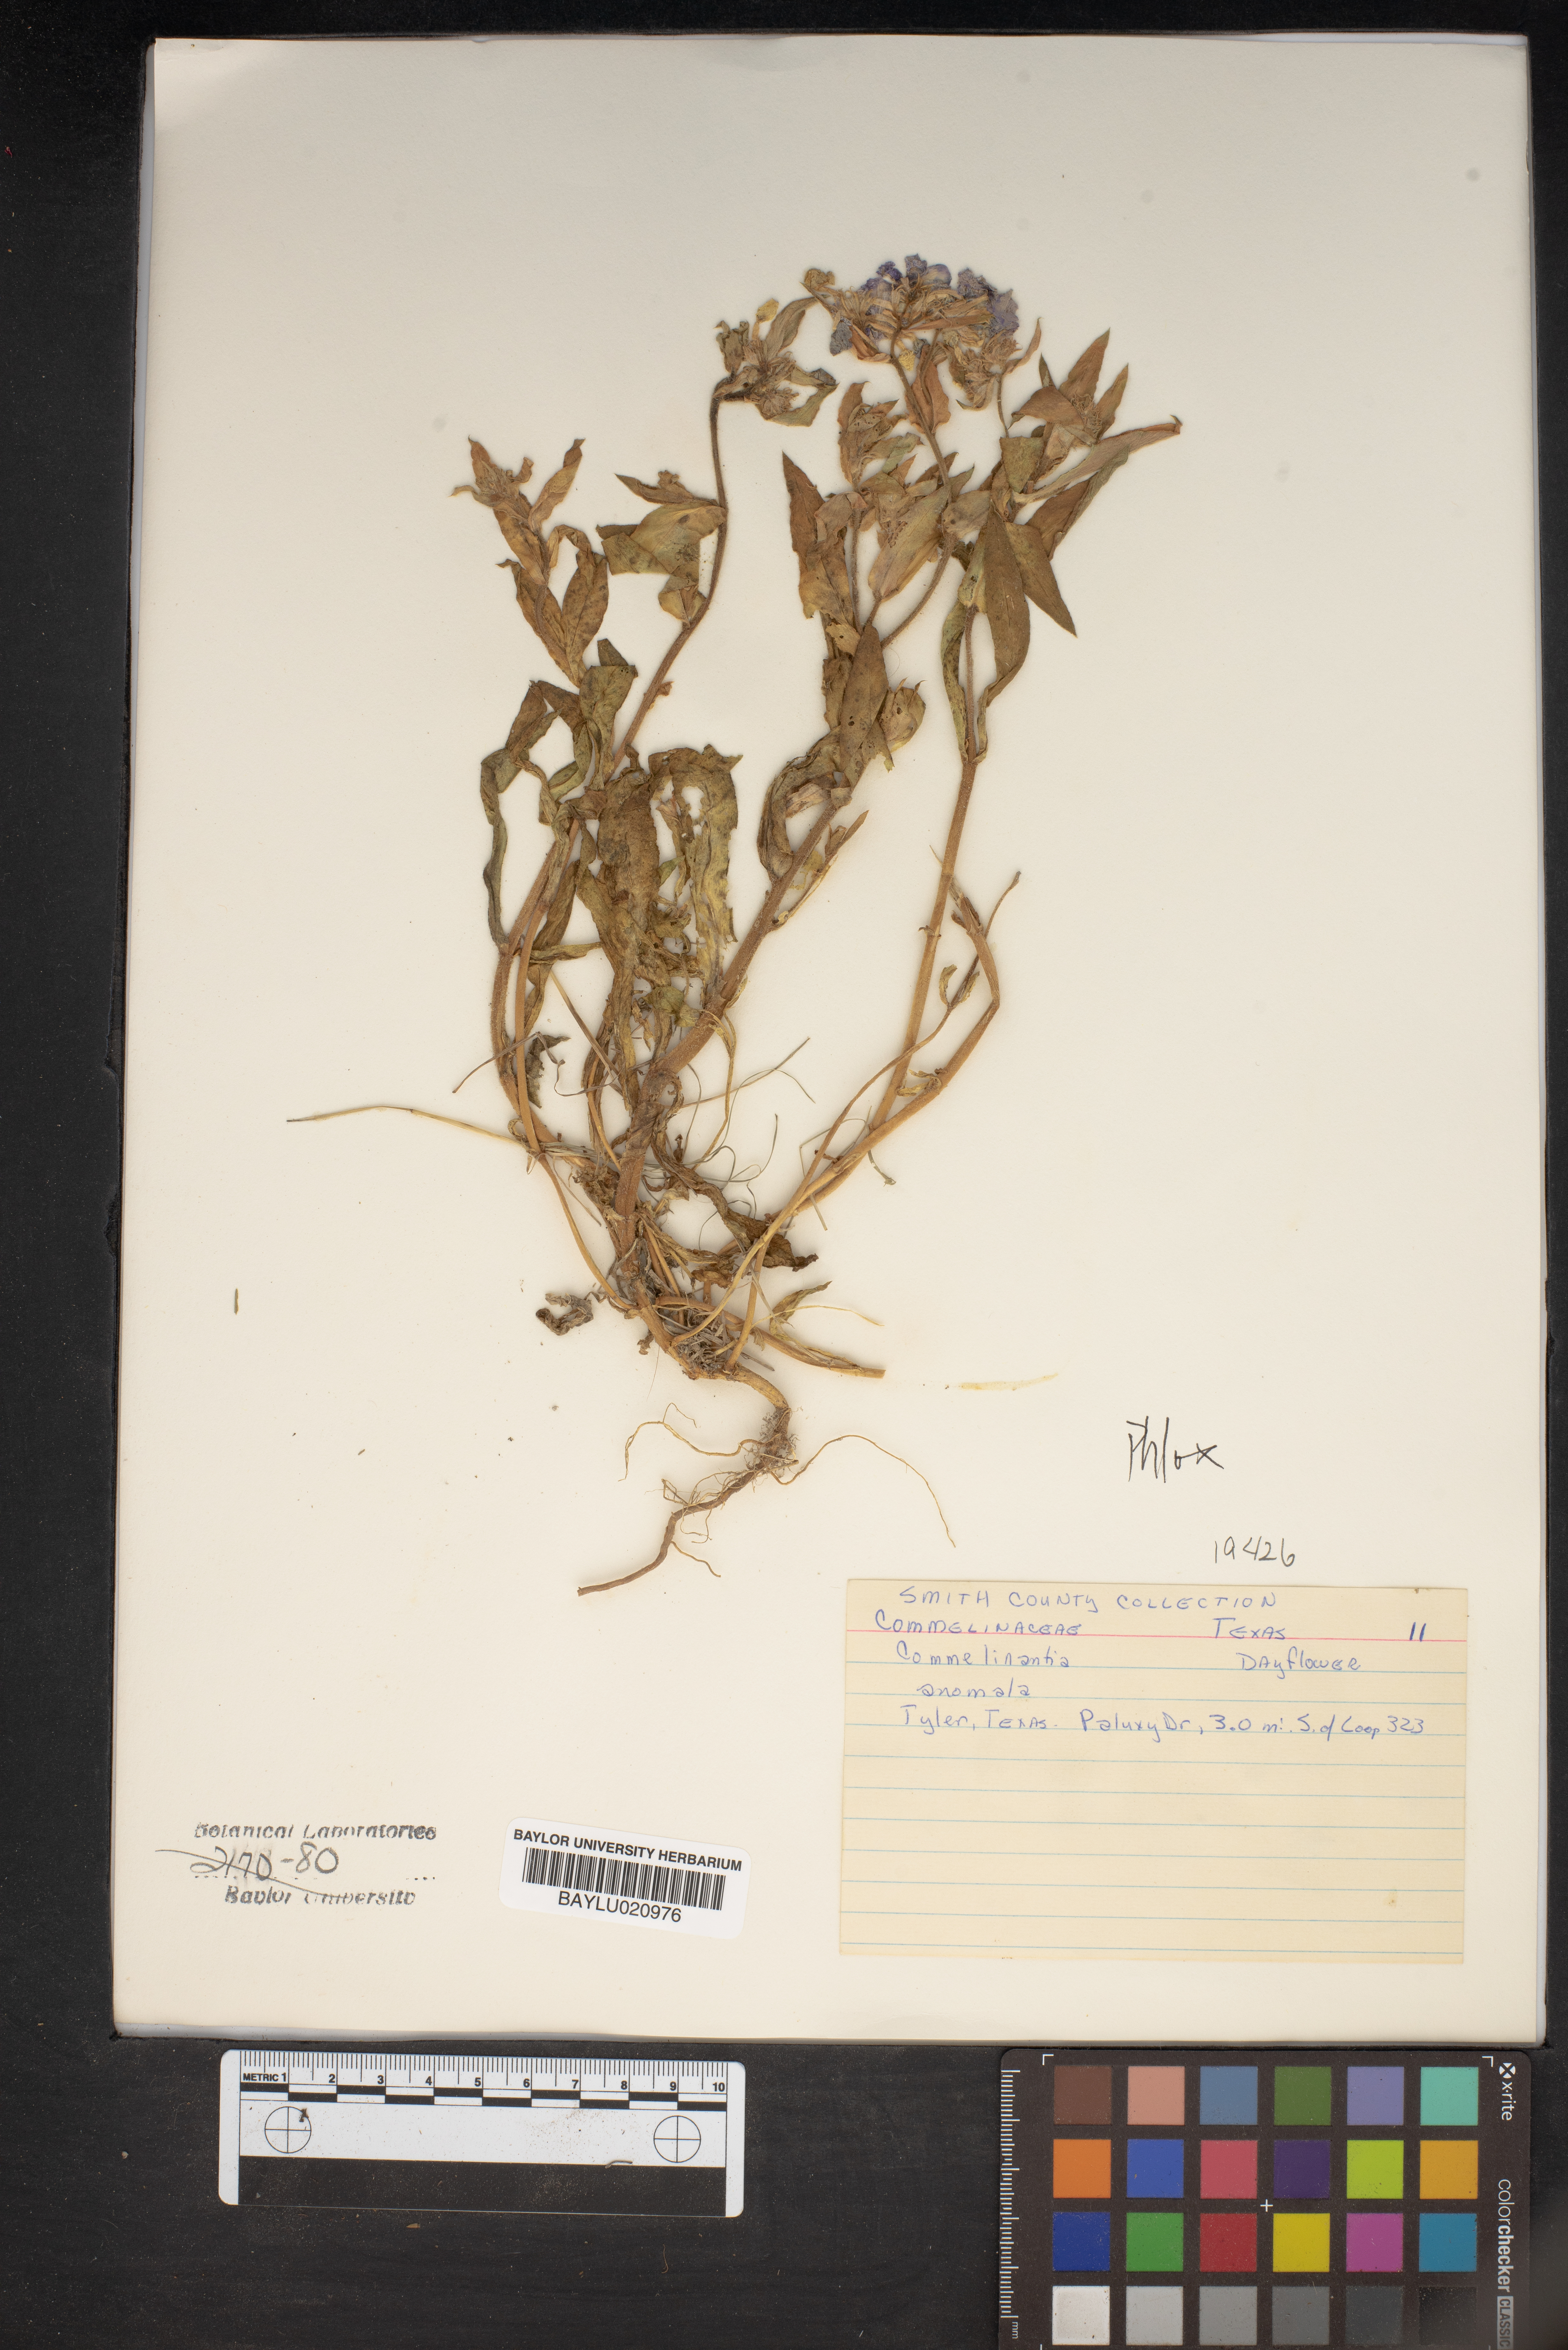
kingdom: Plantae
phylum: Tracheophyta
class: Liliopsida
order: Commelinales
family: Commelinaceae
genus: Tinantia
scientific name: Tinantia anomala
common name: False dayflower
